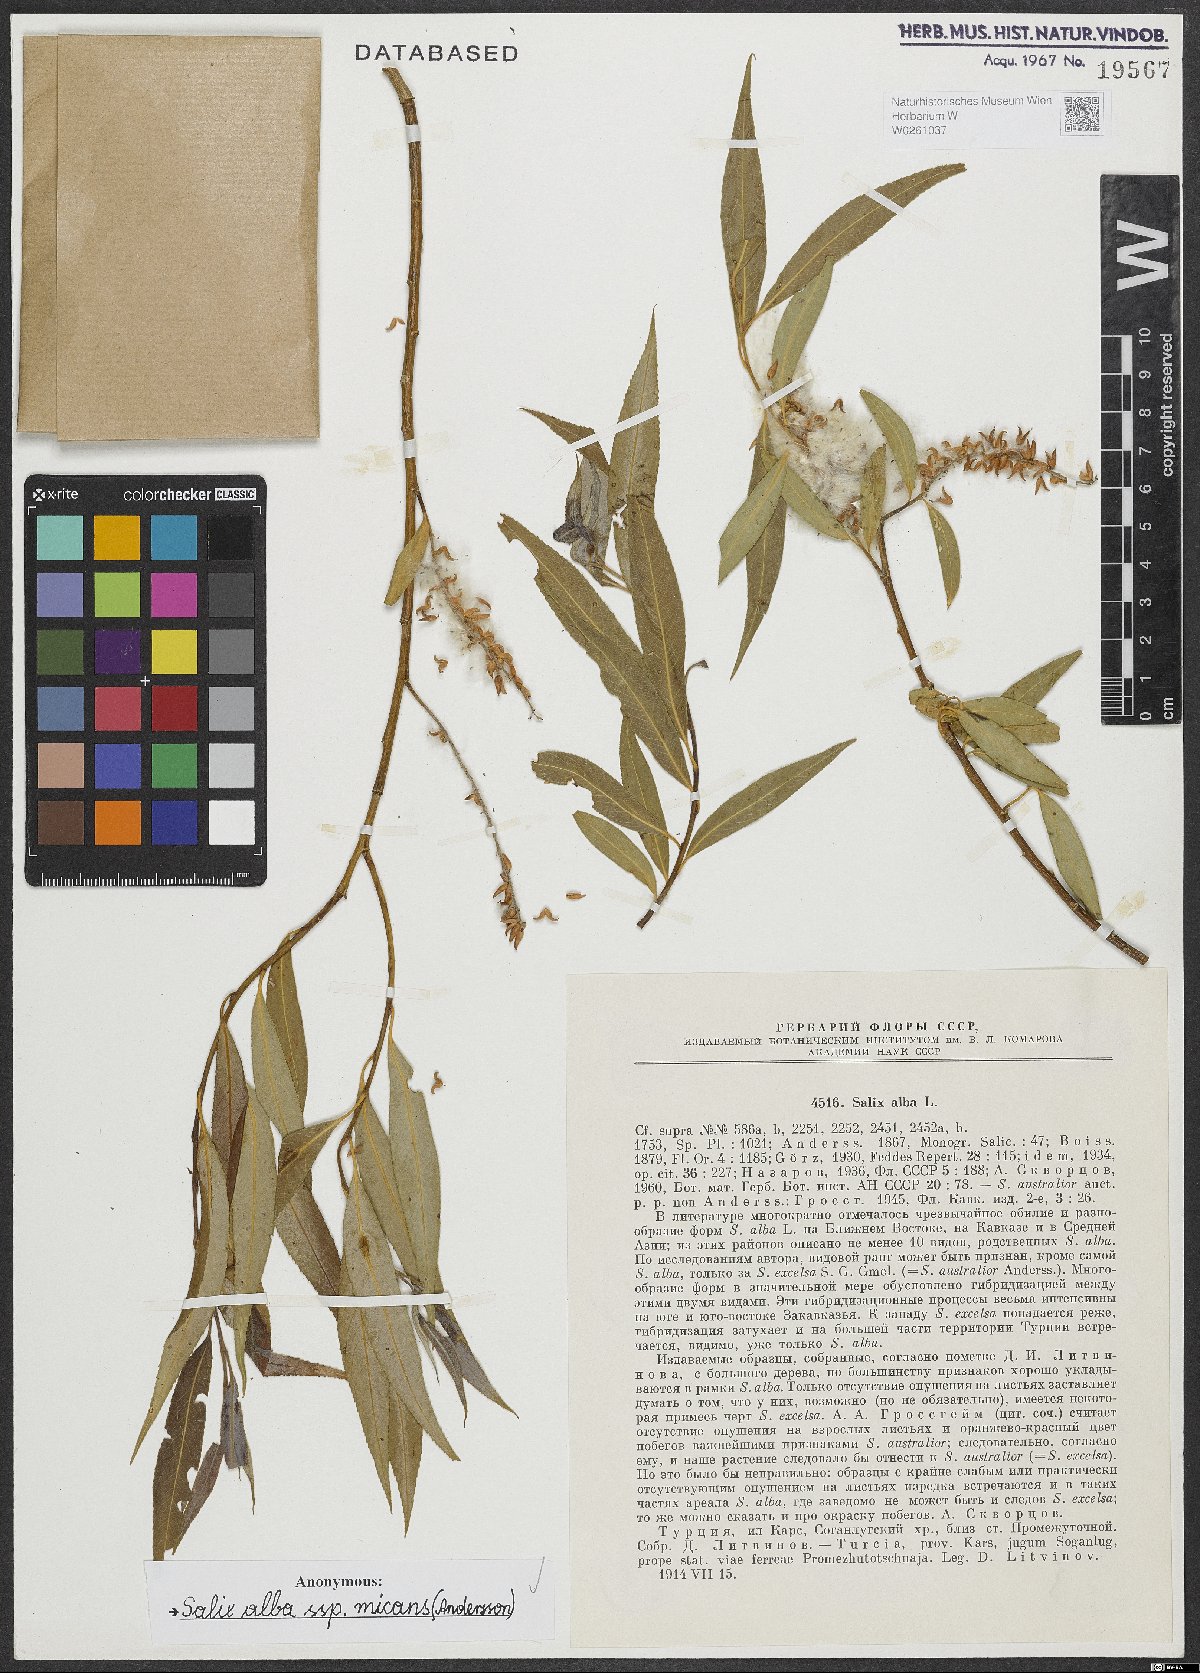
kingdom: Plantae
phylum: Tracheophyta
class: Magnoliopsida
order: Malpighiales
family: Salicaceae
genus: Salix
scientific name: Salix alba
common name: White willow
